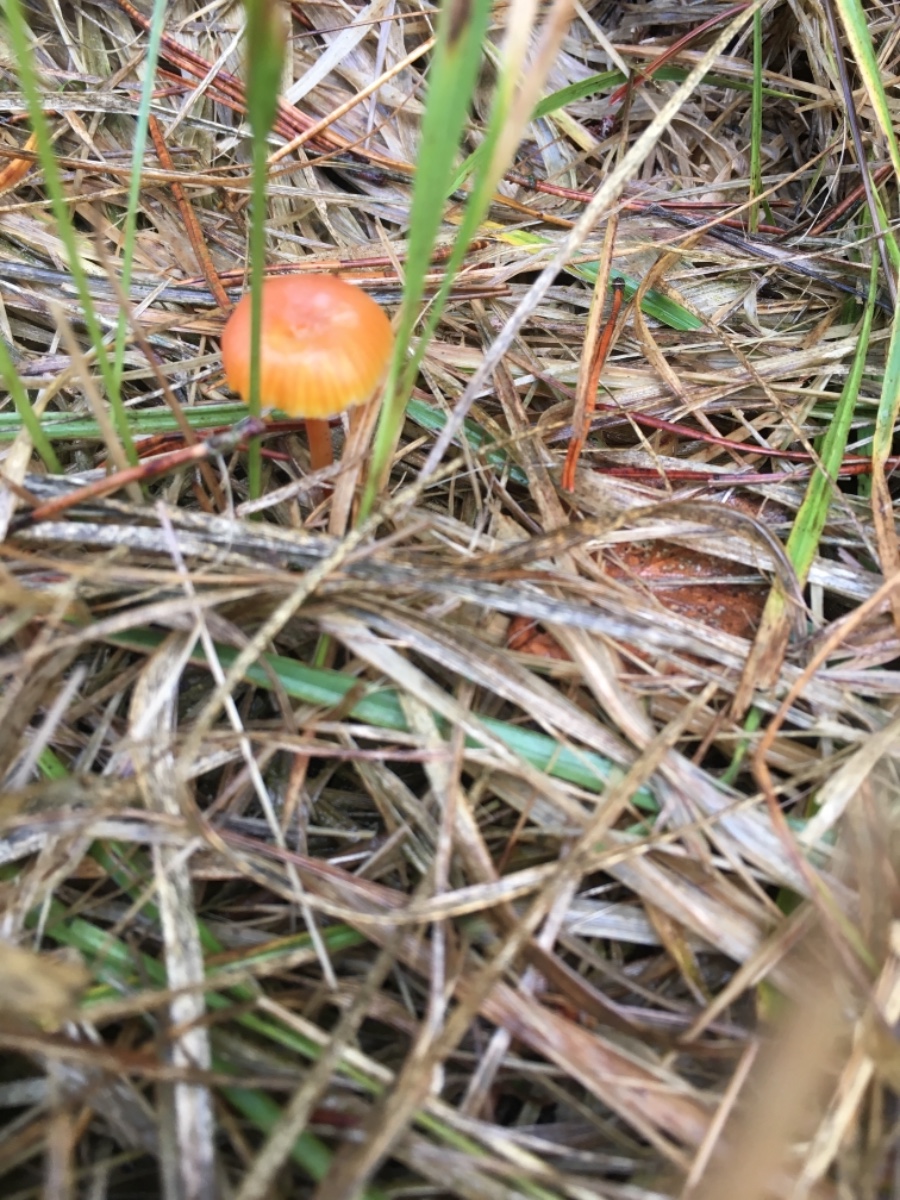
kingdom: Fungi
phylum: Basidiomycota
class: Agaricomycetes
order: Agaricales
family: Hygrophoraceae
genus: Hygrocybe
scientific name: Hygrocybe cantharellus
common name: kantarel-vokshat
